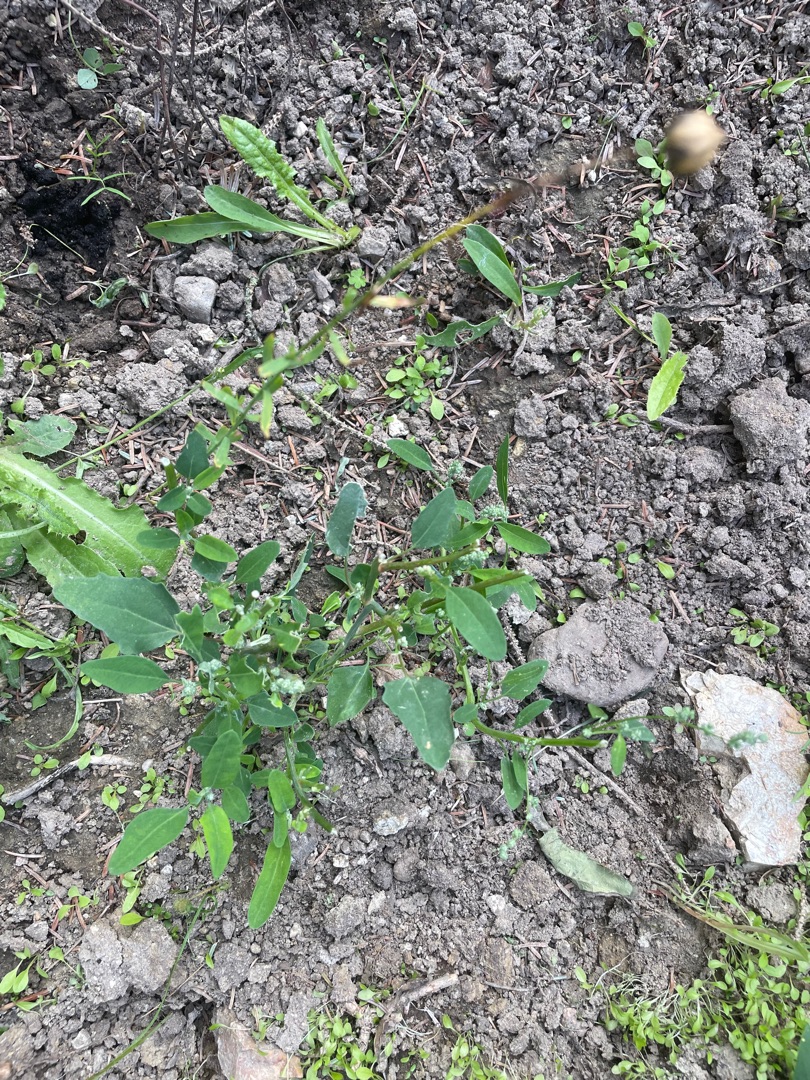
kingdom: Plantae
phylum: Tracheophyta
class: Magnoliopsida
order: Caryophyllales
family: Amaranthaceae
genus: Chenopodium
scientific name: Chenopodium album
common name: Hvidmelet gåsefod
